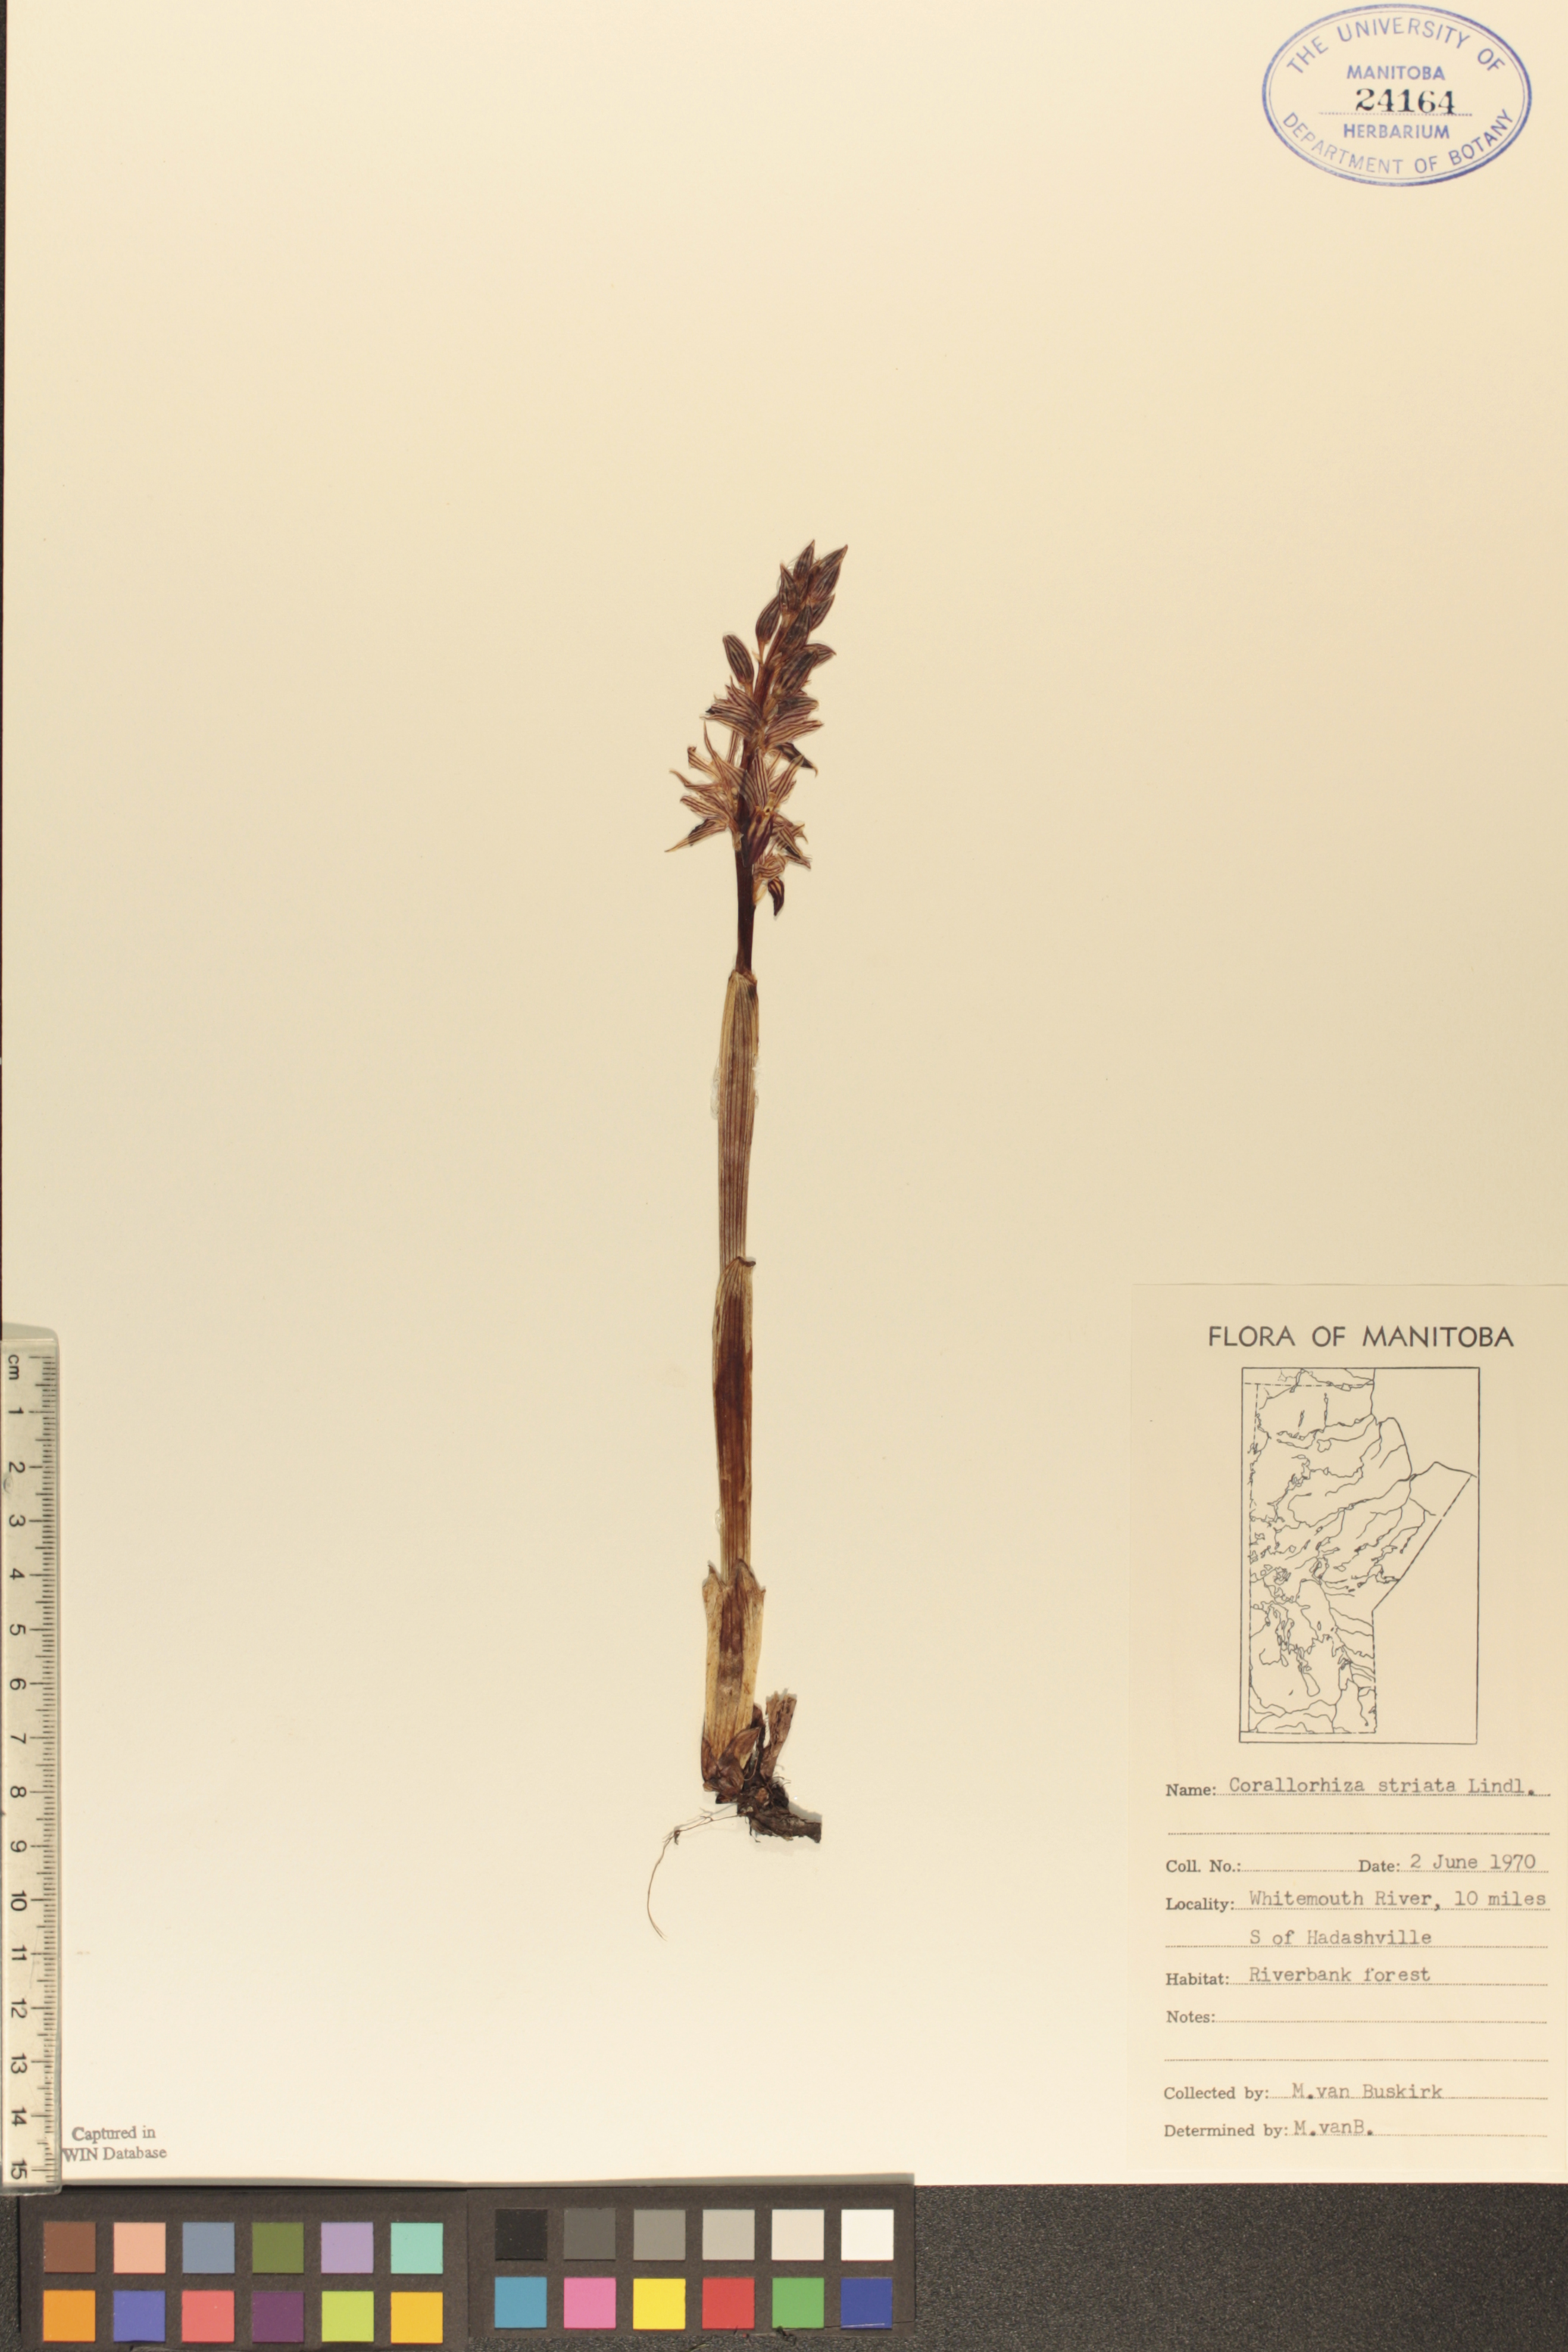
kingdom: Plantae
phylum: Tracheophyta
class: Liliopsida
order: Asparagales
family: Orchidaceae
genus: Corallorhiza
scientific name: Corallorhiza striata
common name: Hooded coralroot
